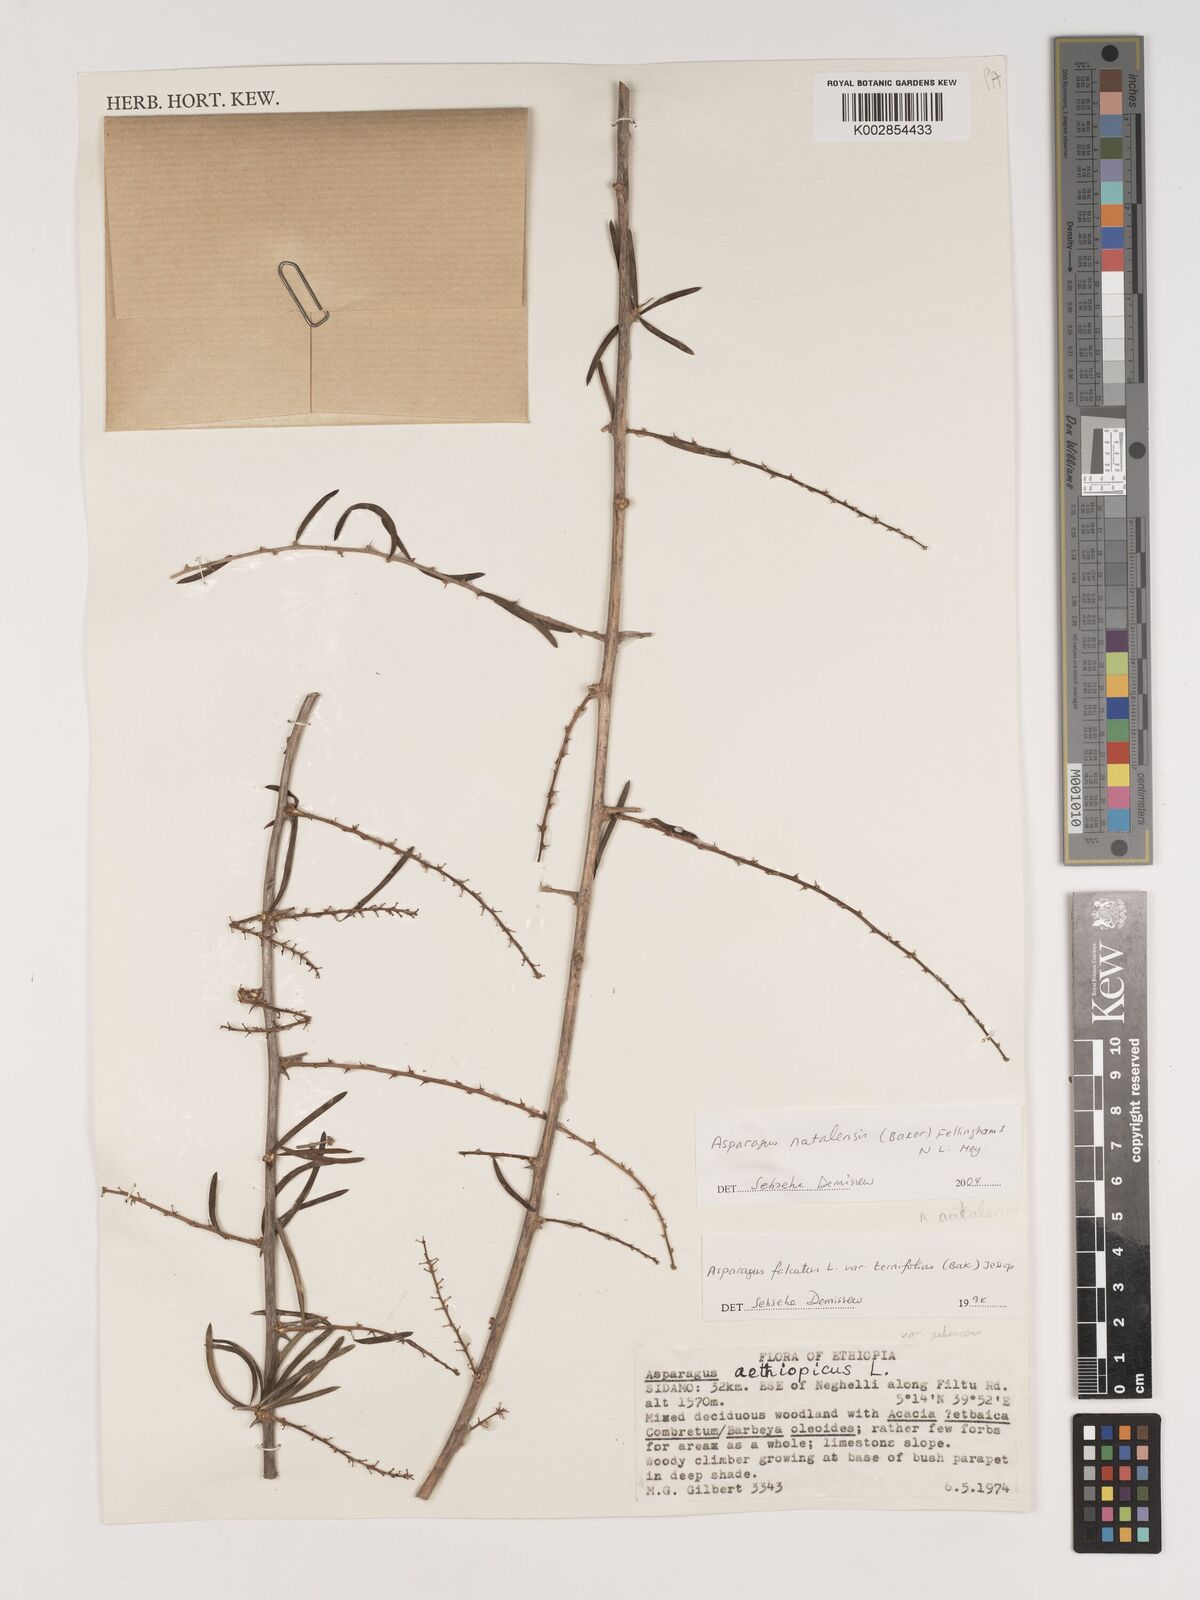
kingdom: Plantae
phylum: Tracheophyta
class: Liliopsida
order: Asparagales
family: Asparagaceae
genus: Asparagus
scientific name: Asparagus natalensis
